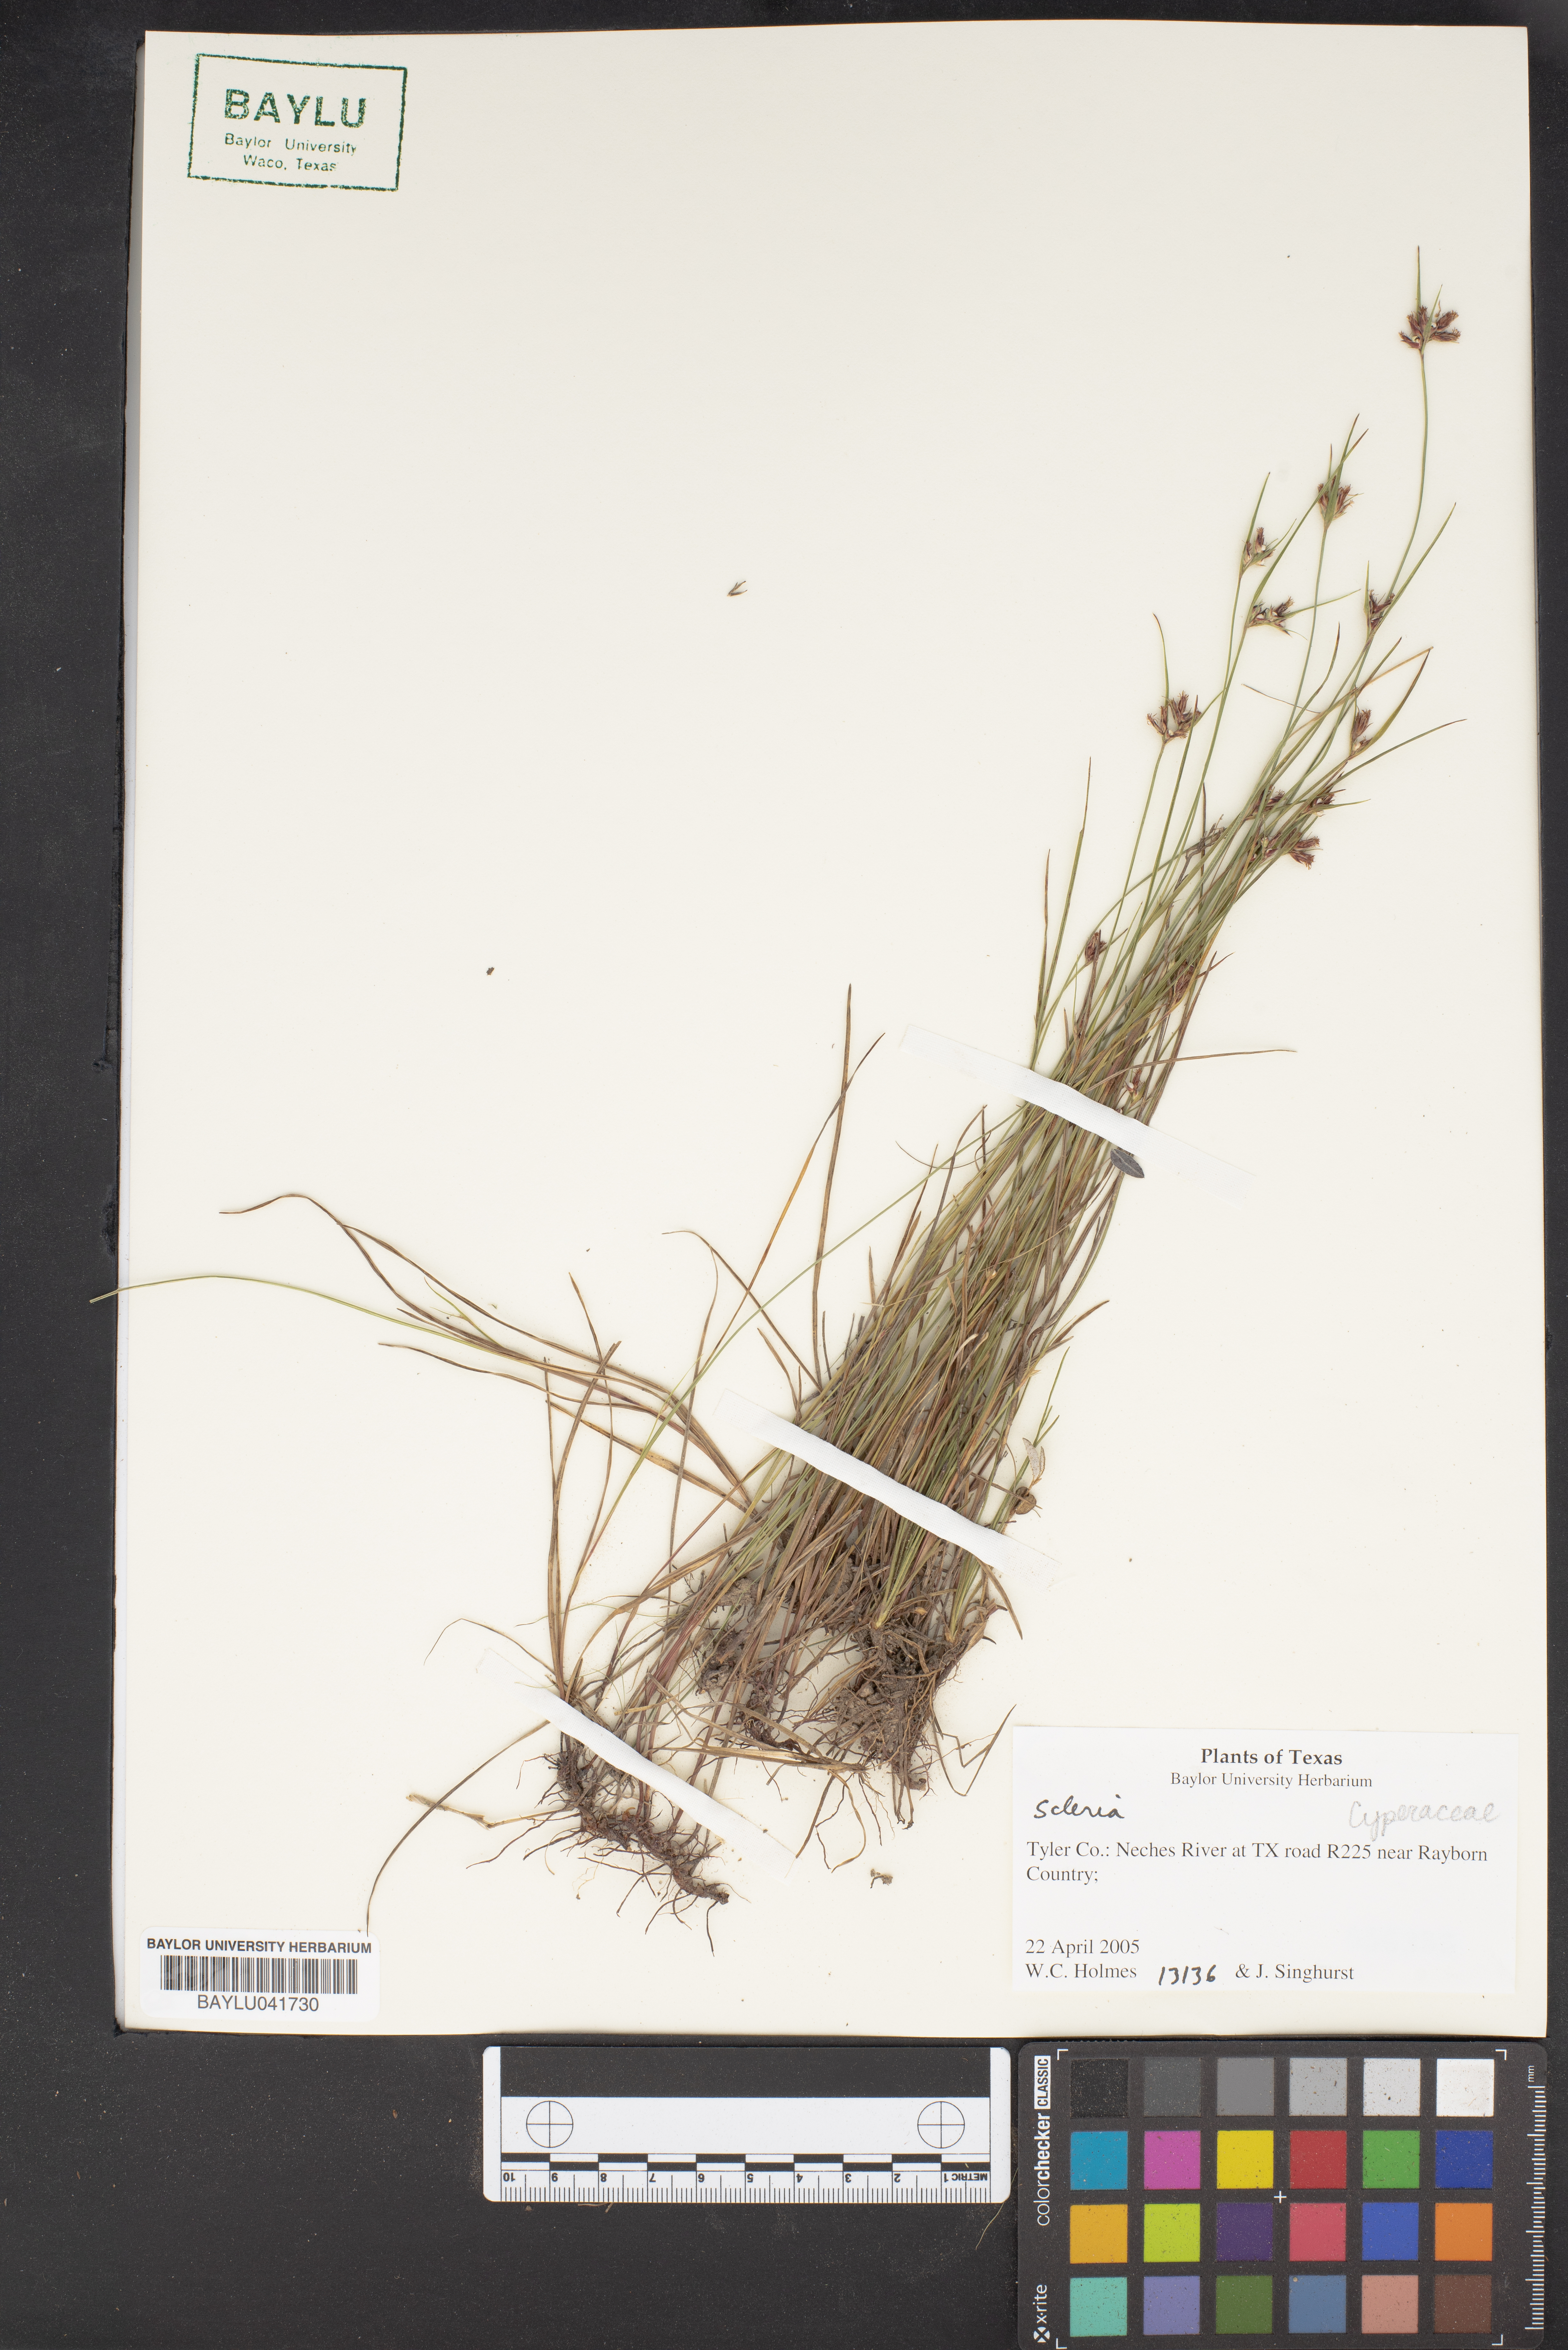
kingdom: Plantae
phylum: Tracheophyta
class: Liliopsida
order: Poales
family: Cyperaceae
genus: Scleria
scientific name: Scleria cyperina
